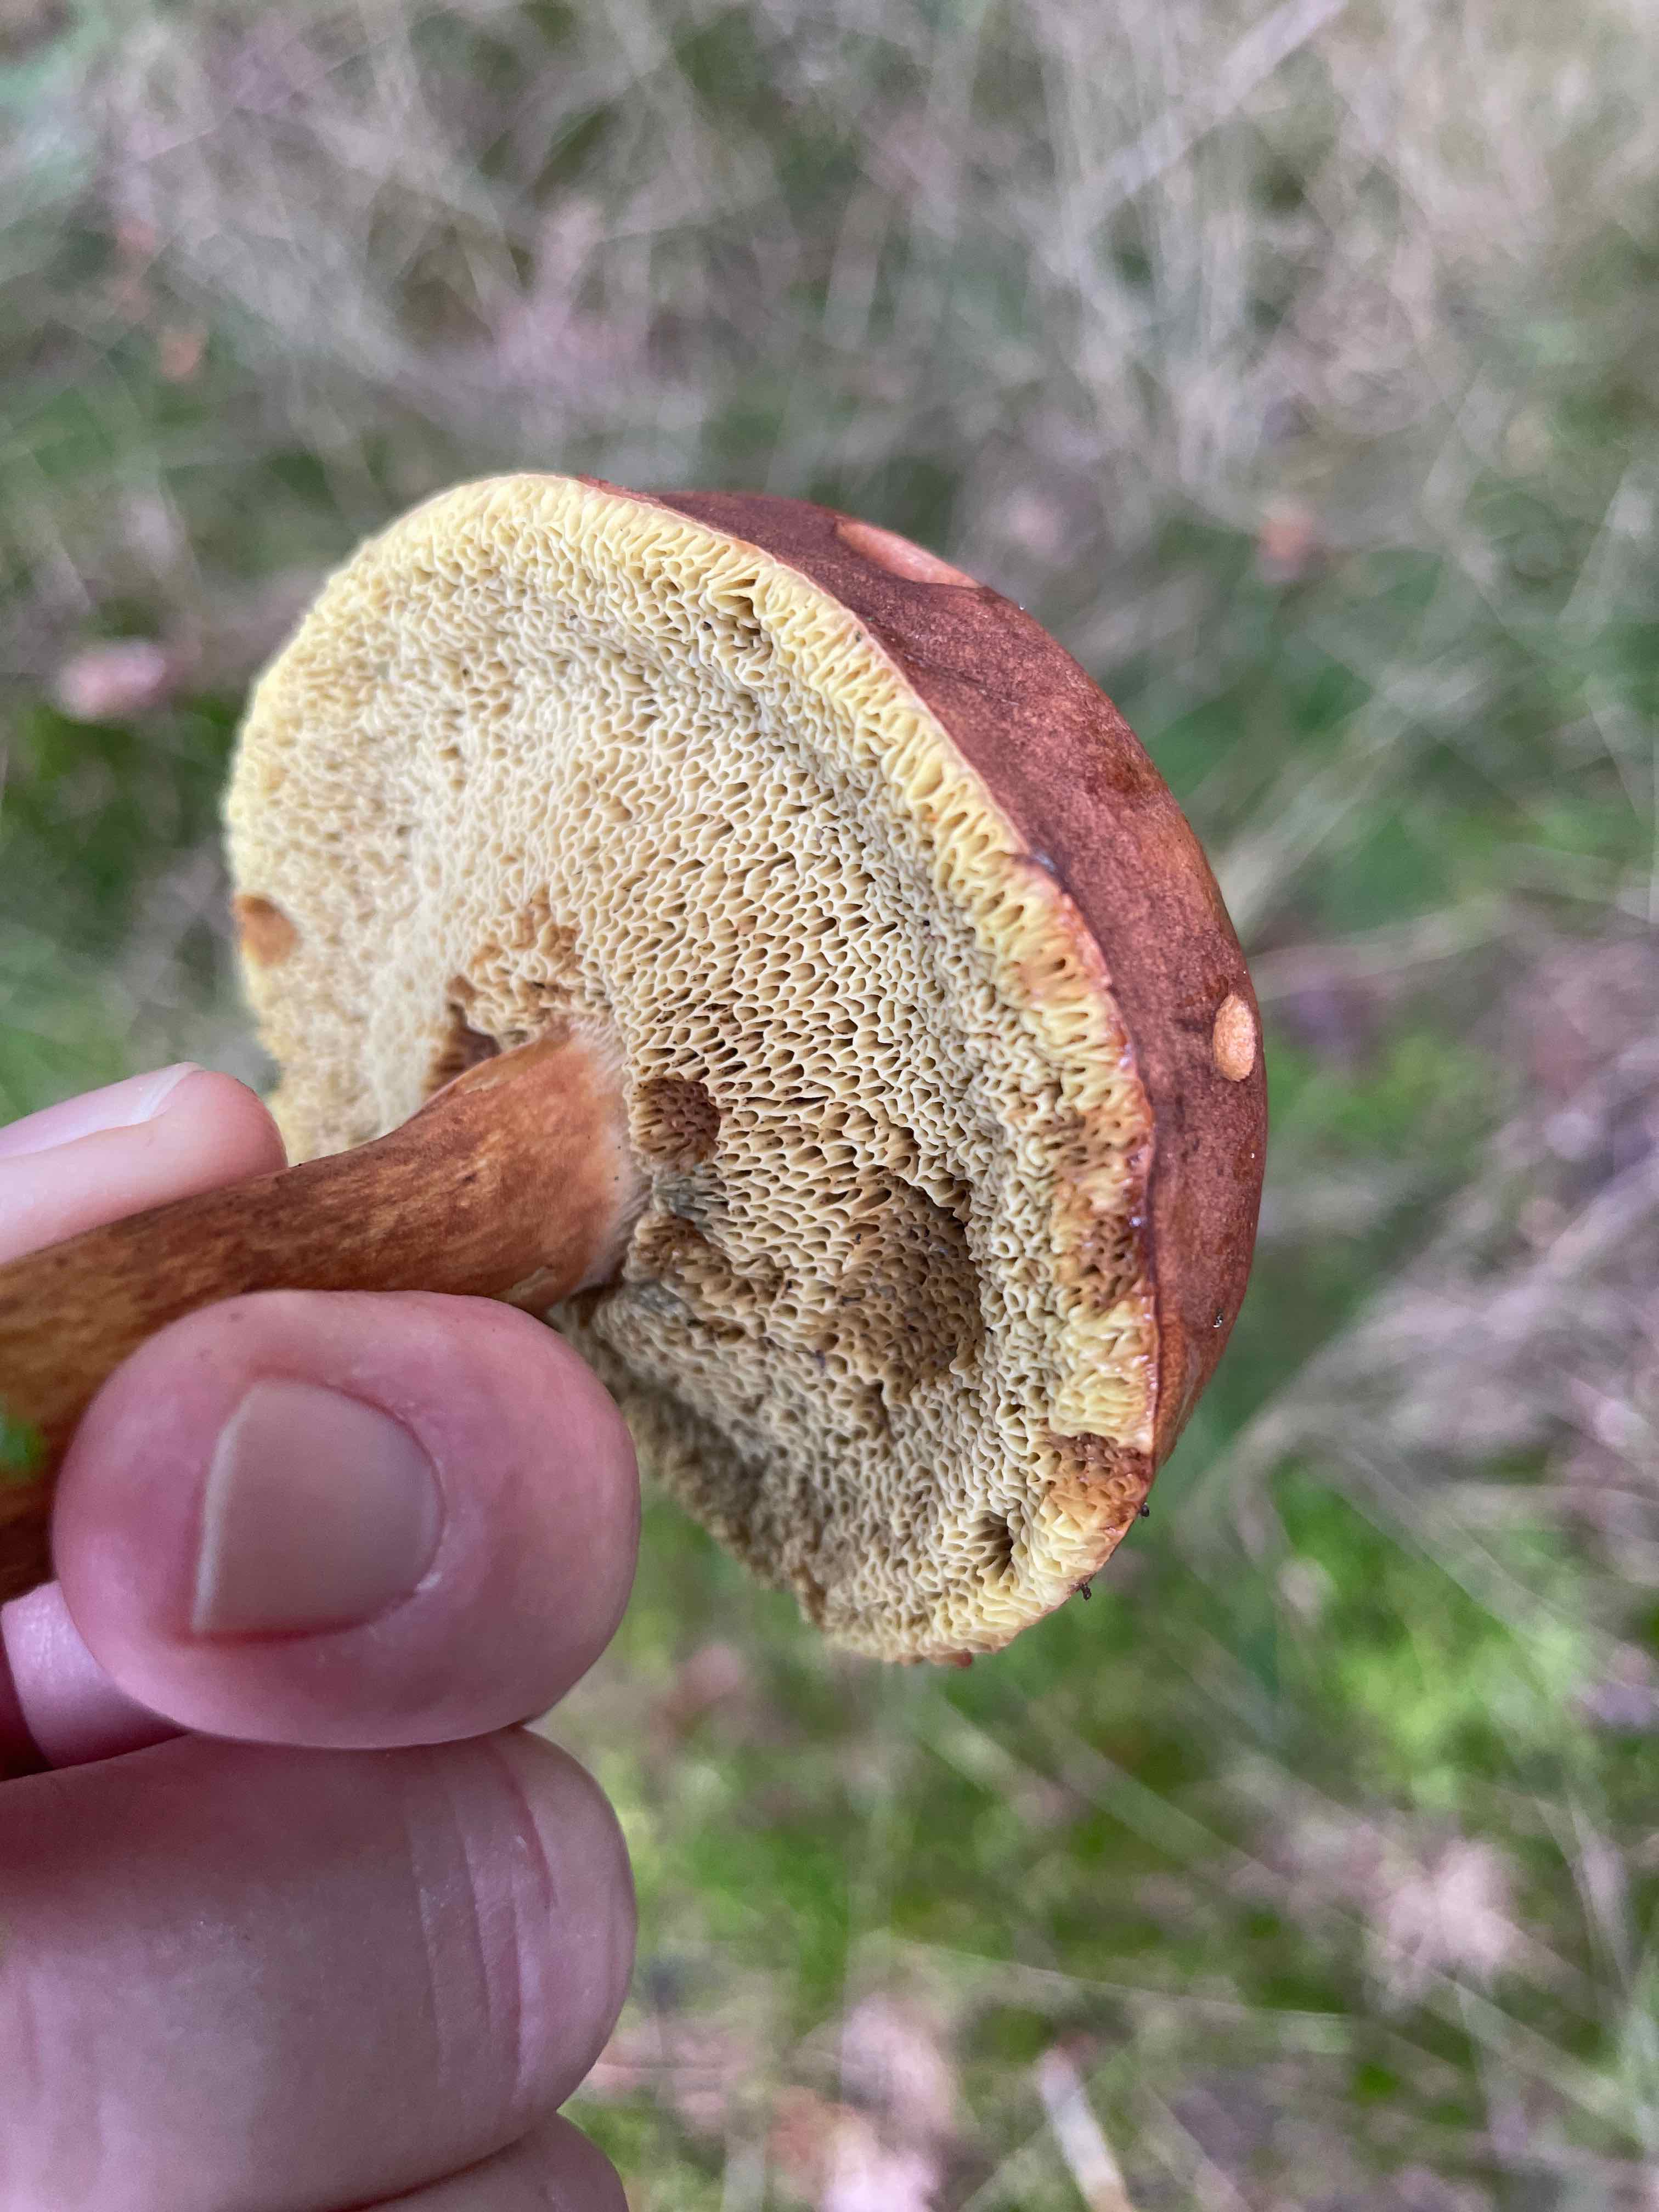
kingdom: Fungi
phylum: Basidiomycota
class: Agaricomycetes
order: Boletales
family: Boletaceae
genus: Imleria
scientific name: Imleria badia
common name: brunstokket rørhat
